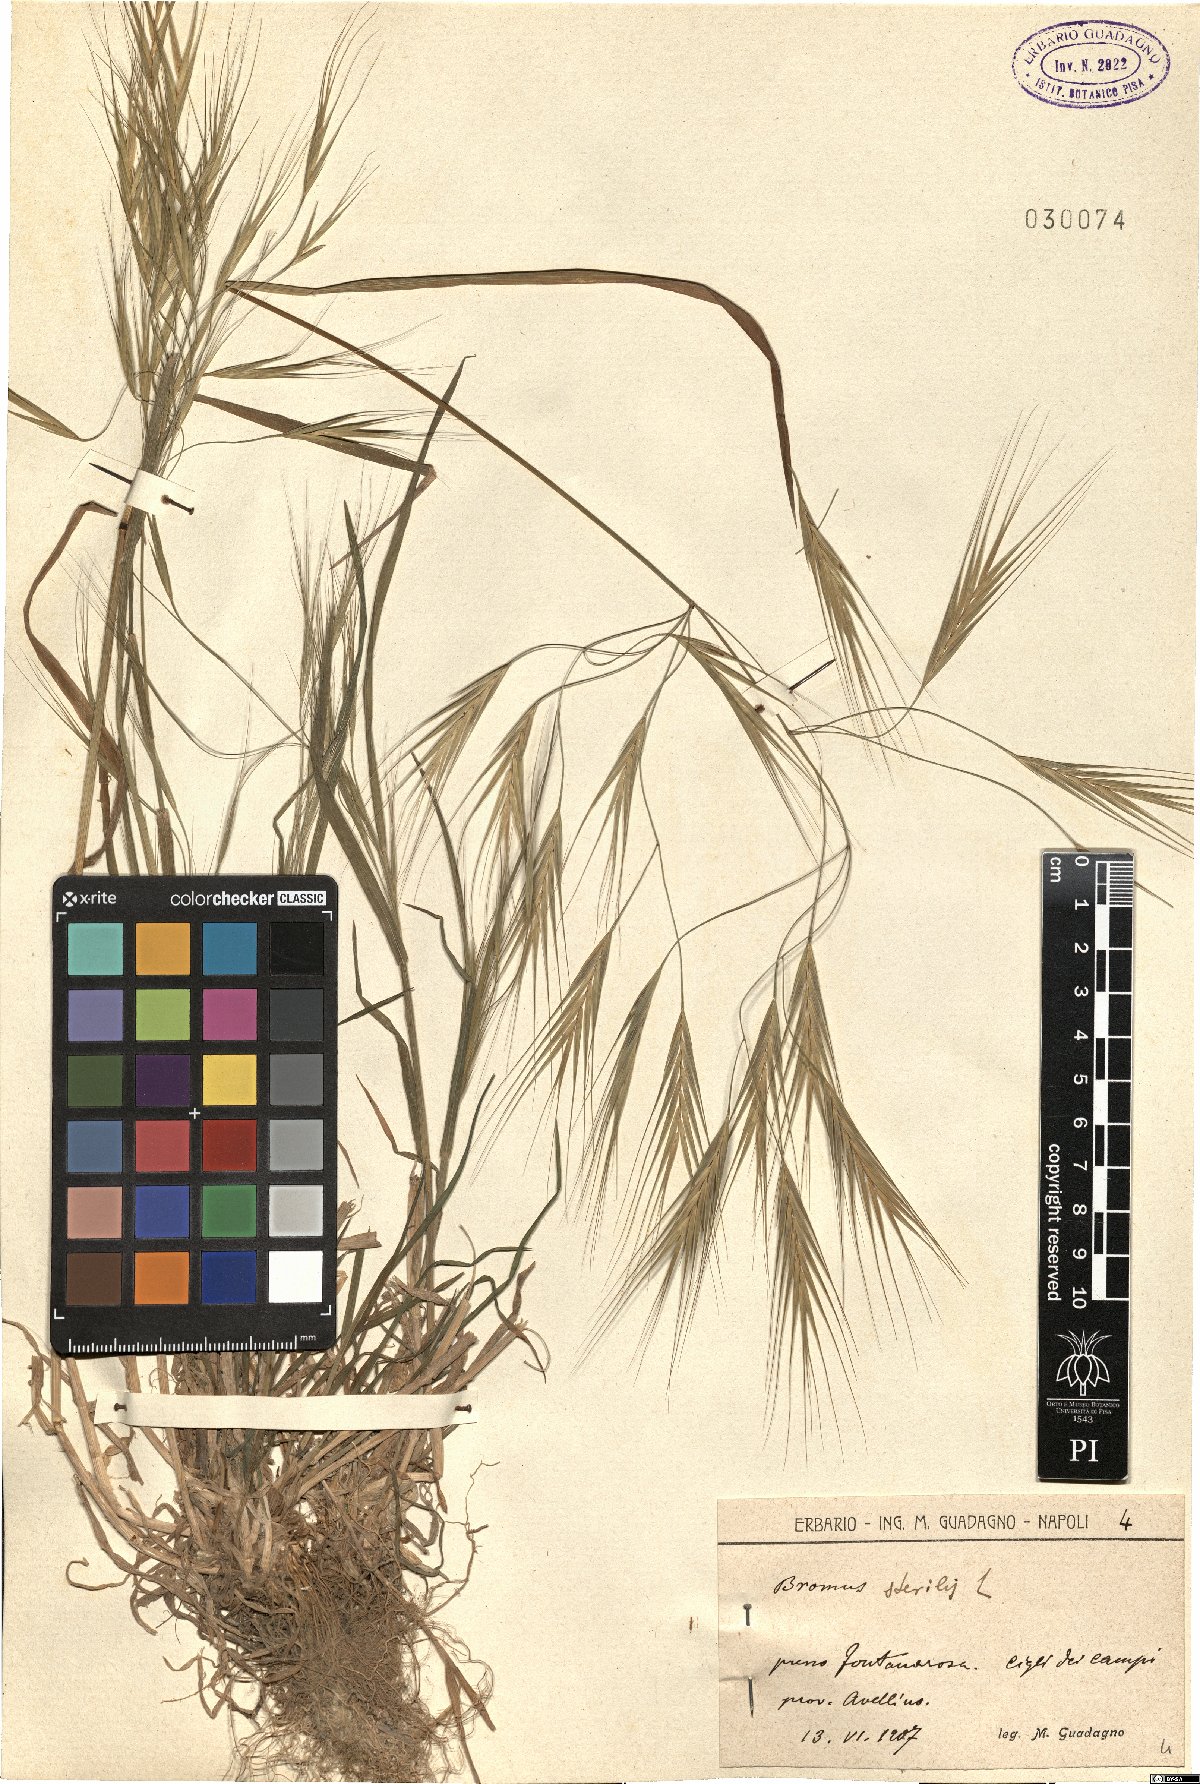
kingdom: Plantae
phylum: Tracheophyta
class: Liliopsida
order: Poales
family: Poaceae
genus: Bromus
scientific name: Bromus sterilis
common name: Poverty brome
